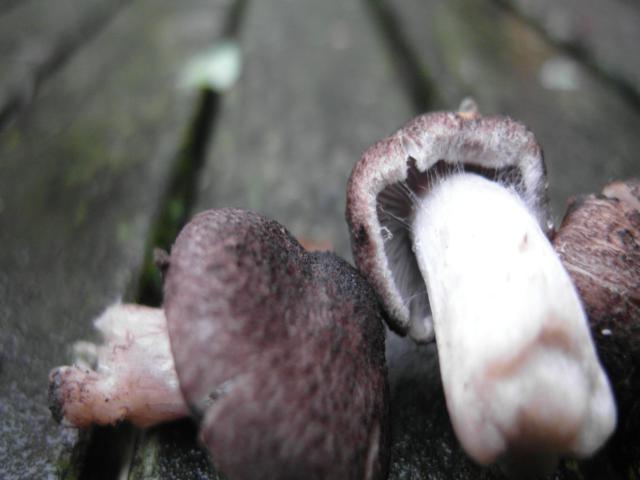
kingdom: Fungi
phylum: Basidiomycota
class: Agaricomycetes
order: Agaricales
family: Tricholomataceae
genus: Tricholoma
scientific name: Tricholoma argyraceum
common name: slør-ridderhat
